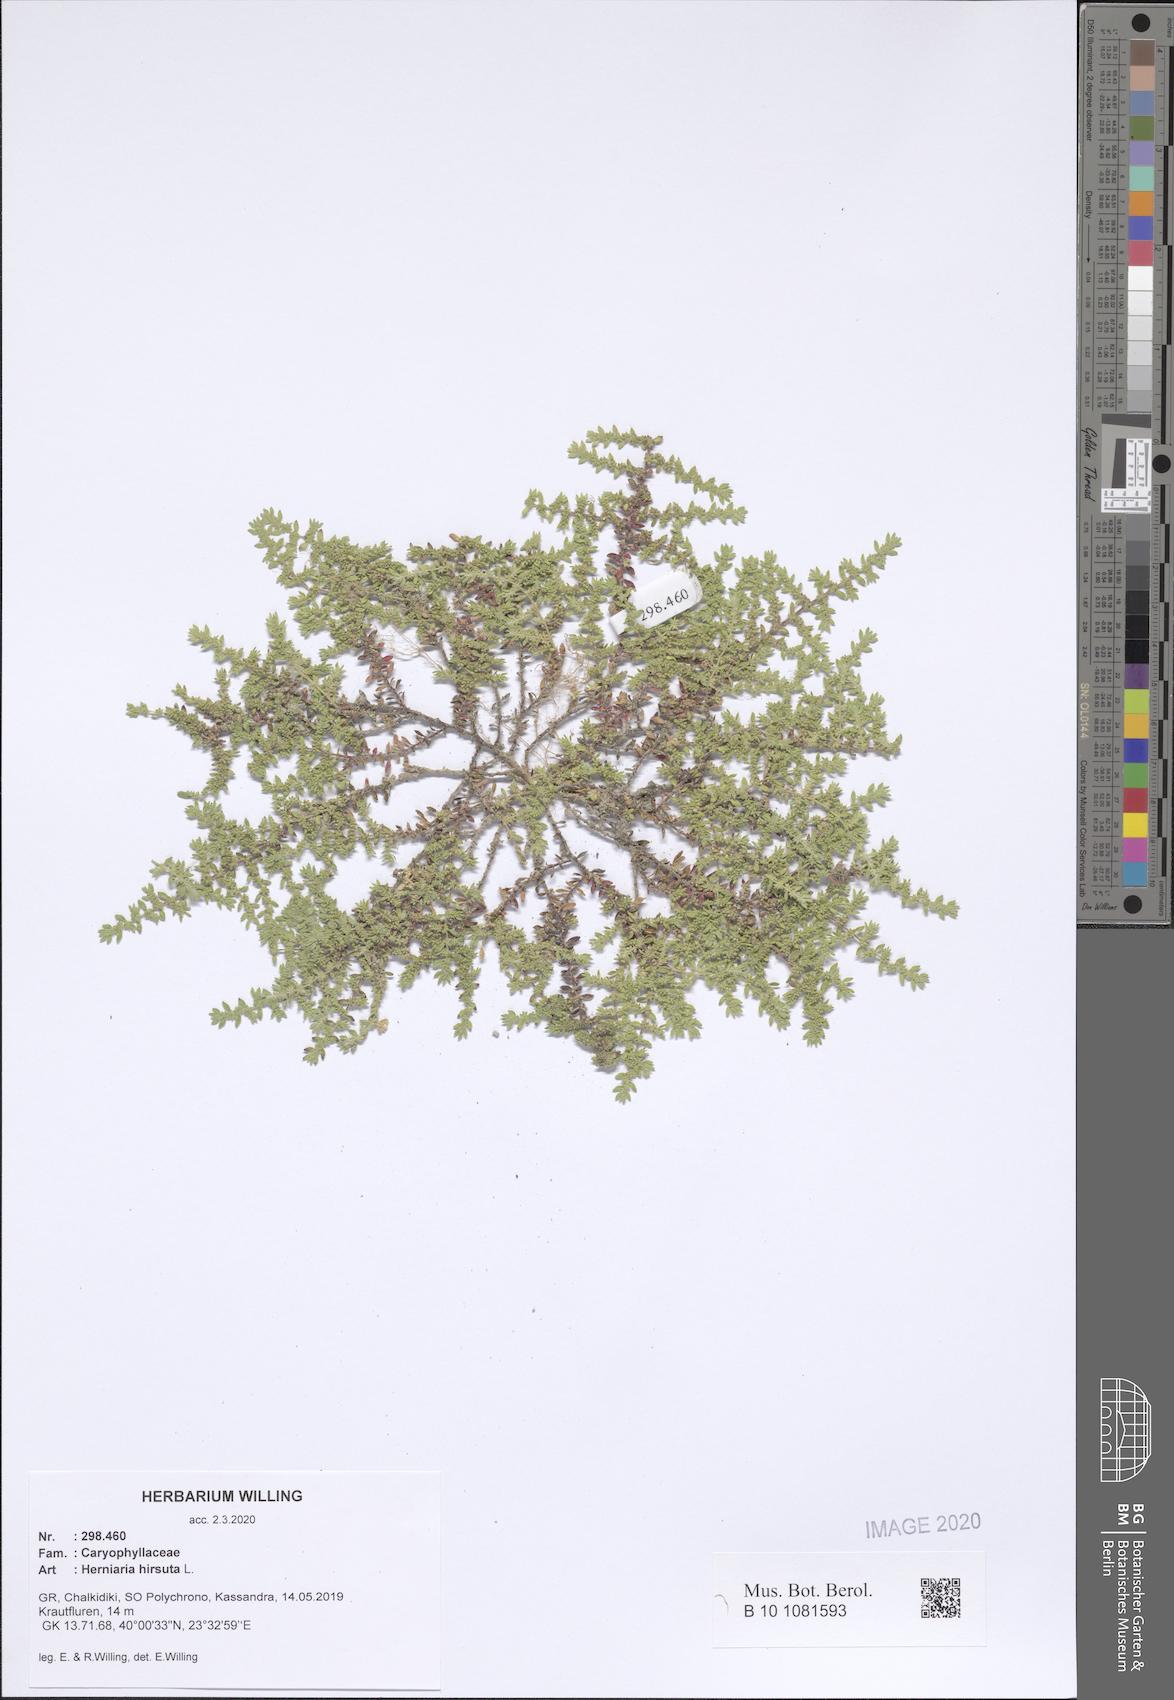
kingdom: Plantae
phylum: Tracheophyta
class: Magnoliopsida
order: Caryophyllales
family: Caryophyllaceae
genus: Herniaria
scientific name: Herniaria hirsuta
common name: Hairy rupturewort
